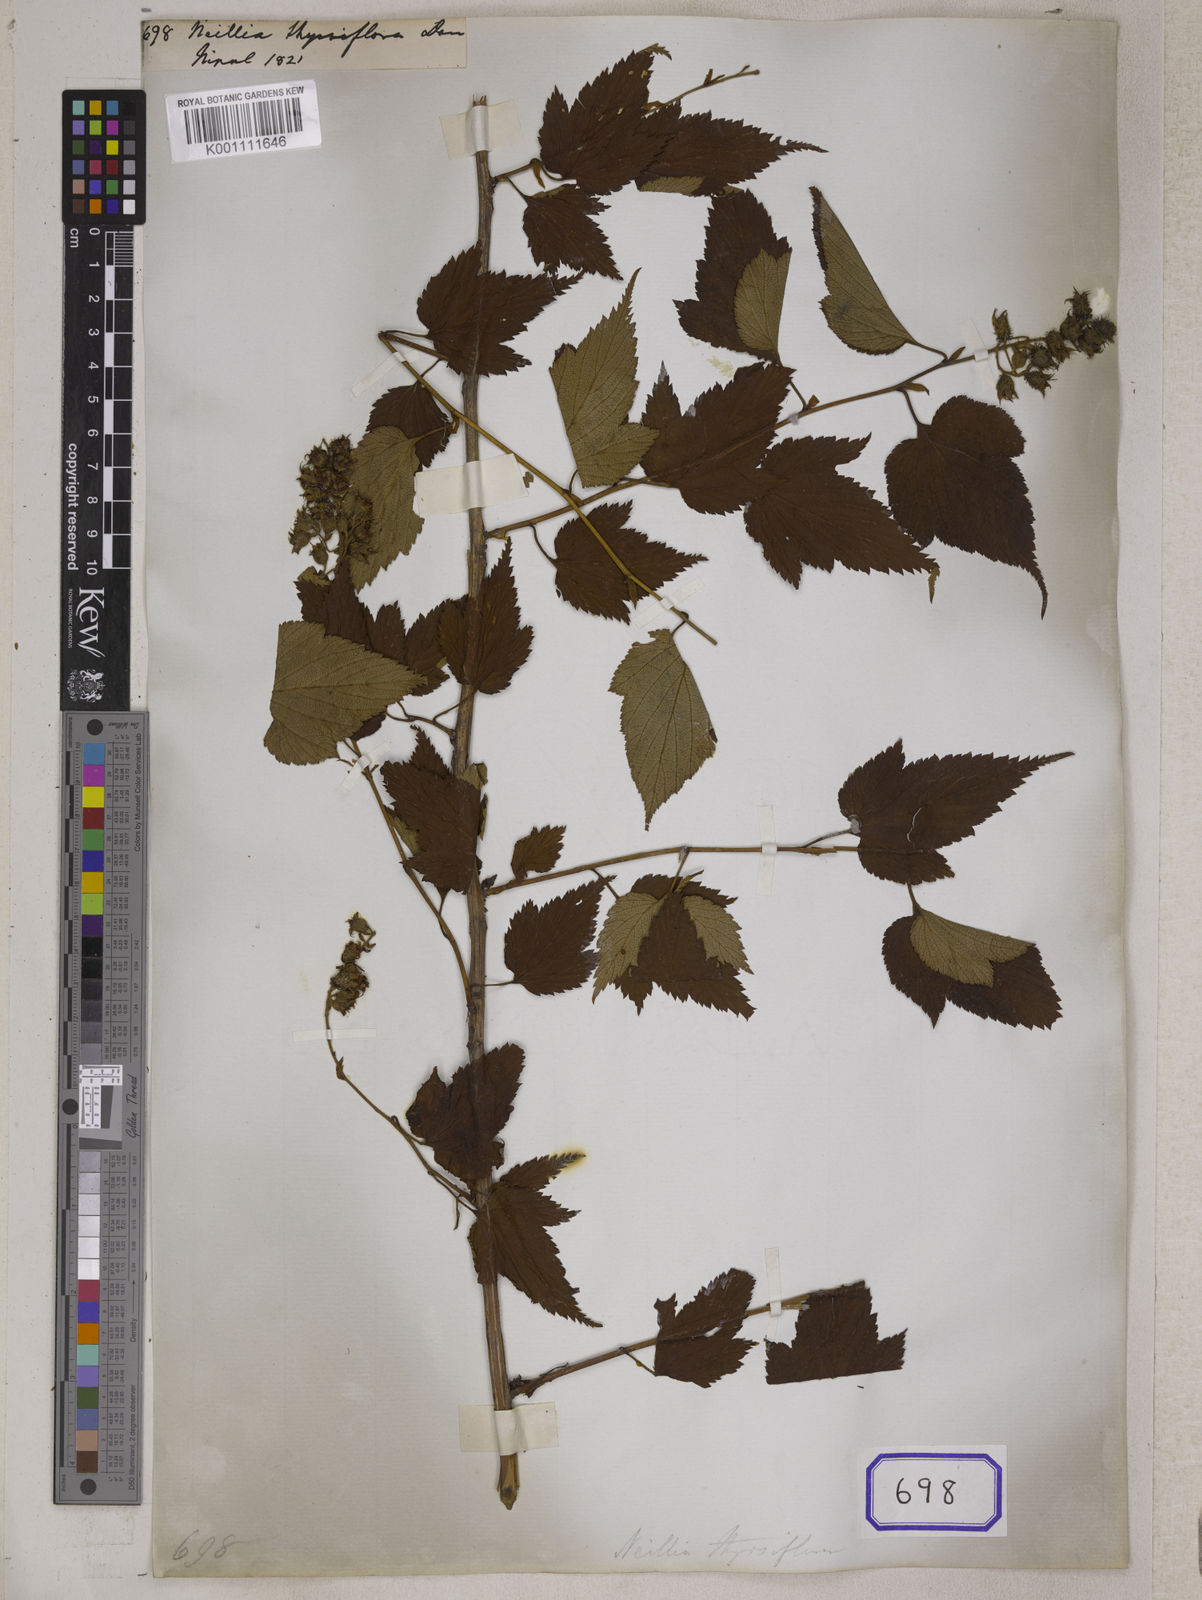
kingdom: Plantae
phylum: Tracheophyta
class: Magnoliopsida
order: Rosales
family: Rosaceae
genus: Neillia
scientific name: Neillia thyrsiflora
